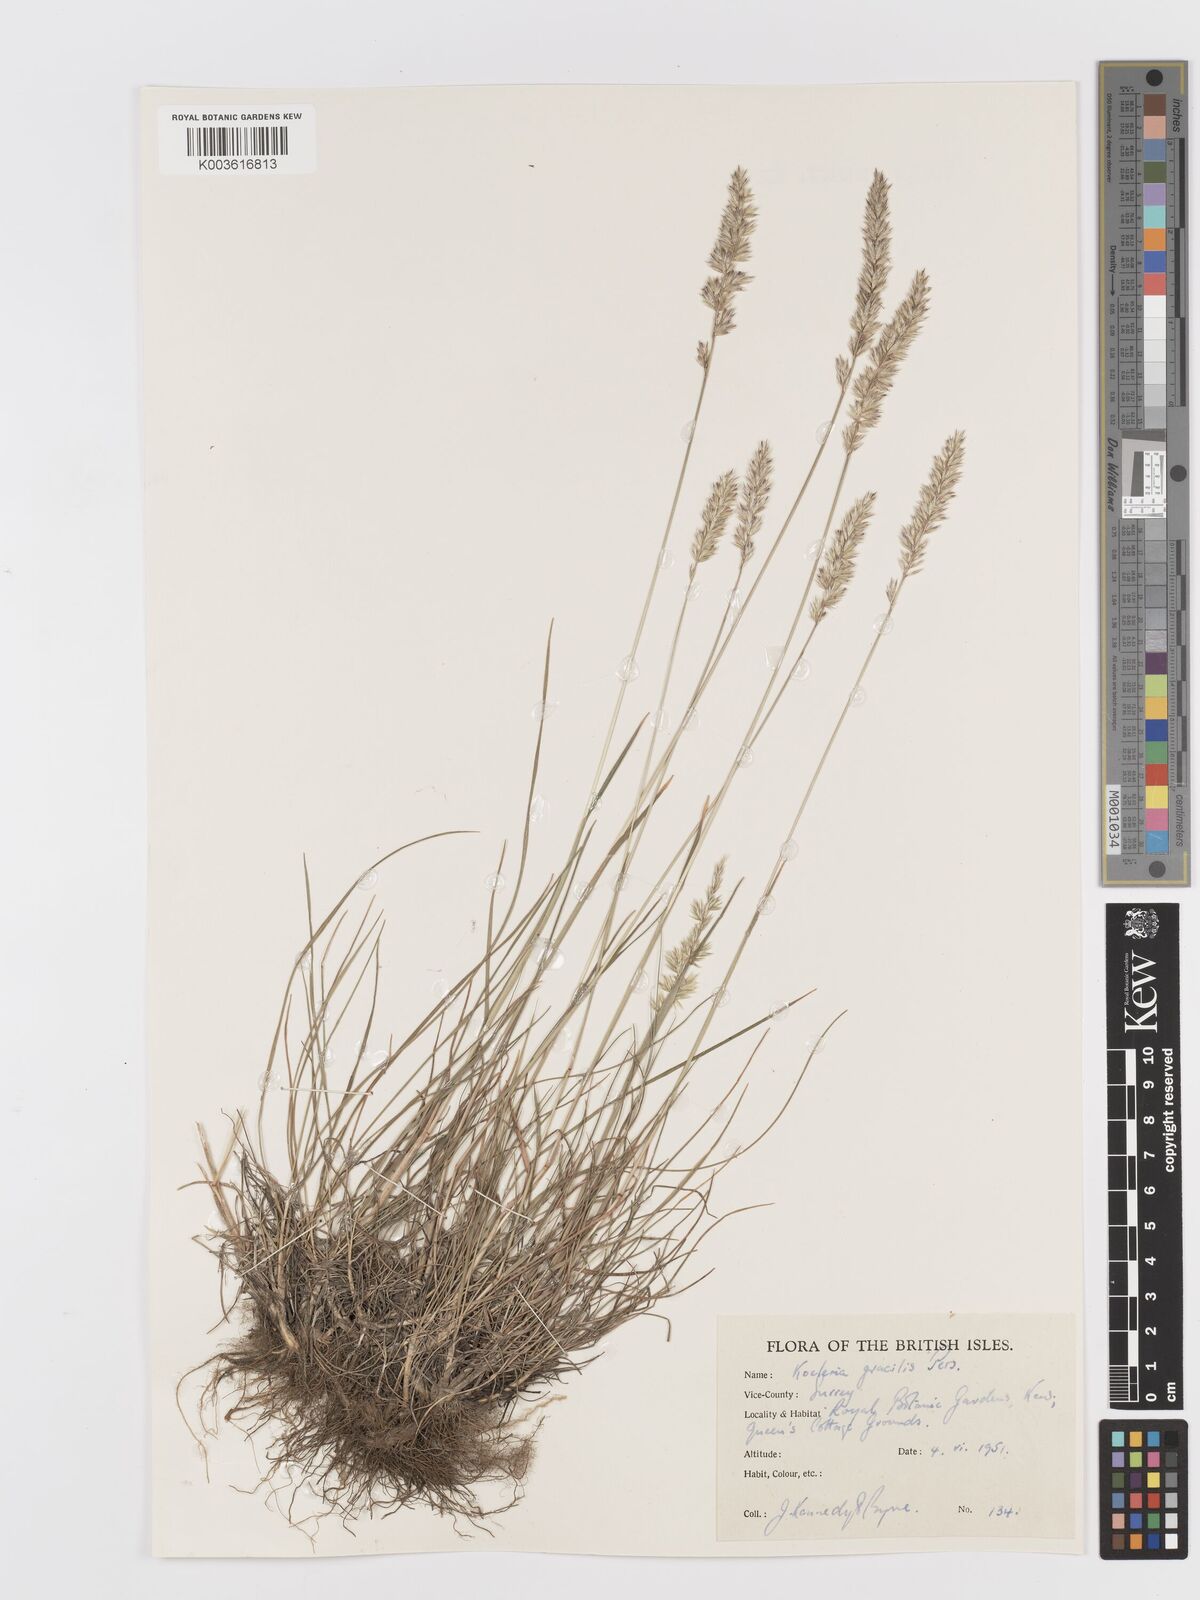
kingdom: Plantae
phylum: Tracheophyta
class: Liliopsida
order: Poales
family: Poaceae
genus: Koeleria
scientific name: Koeleria macrantha
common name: Crested hair-grass
